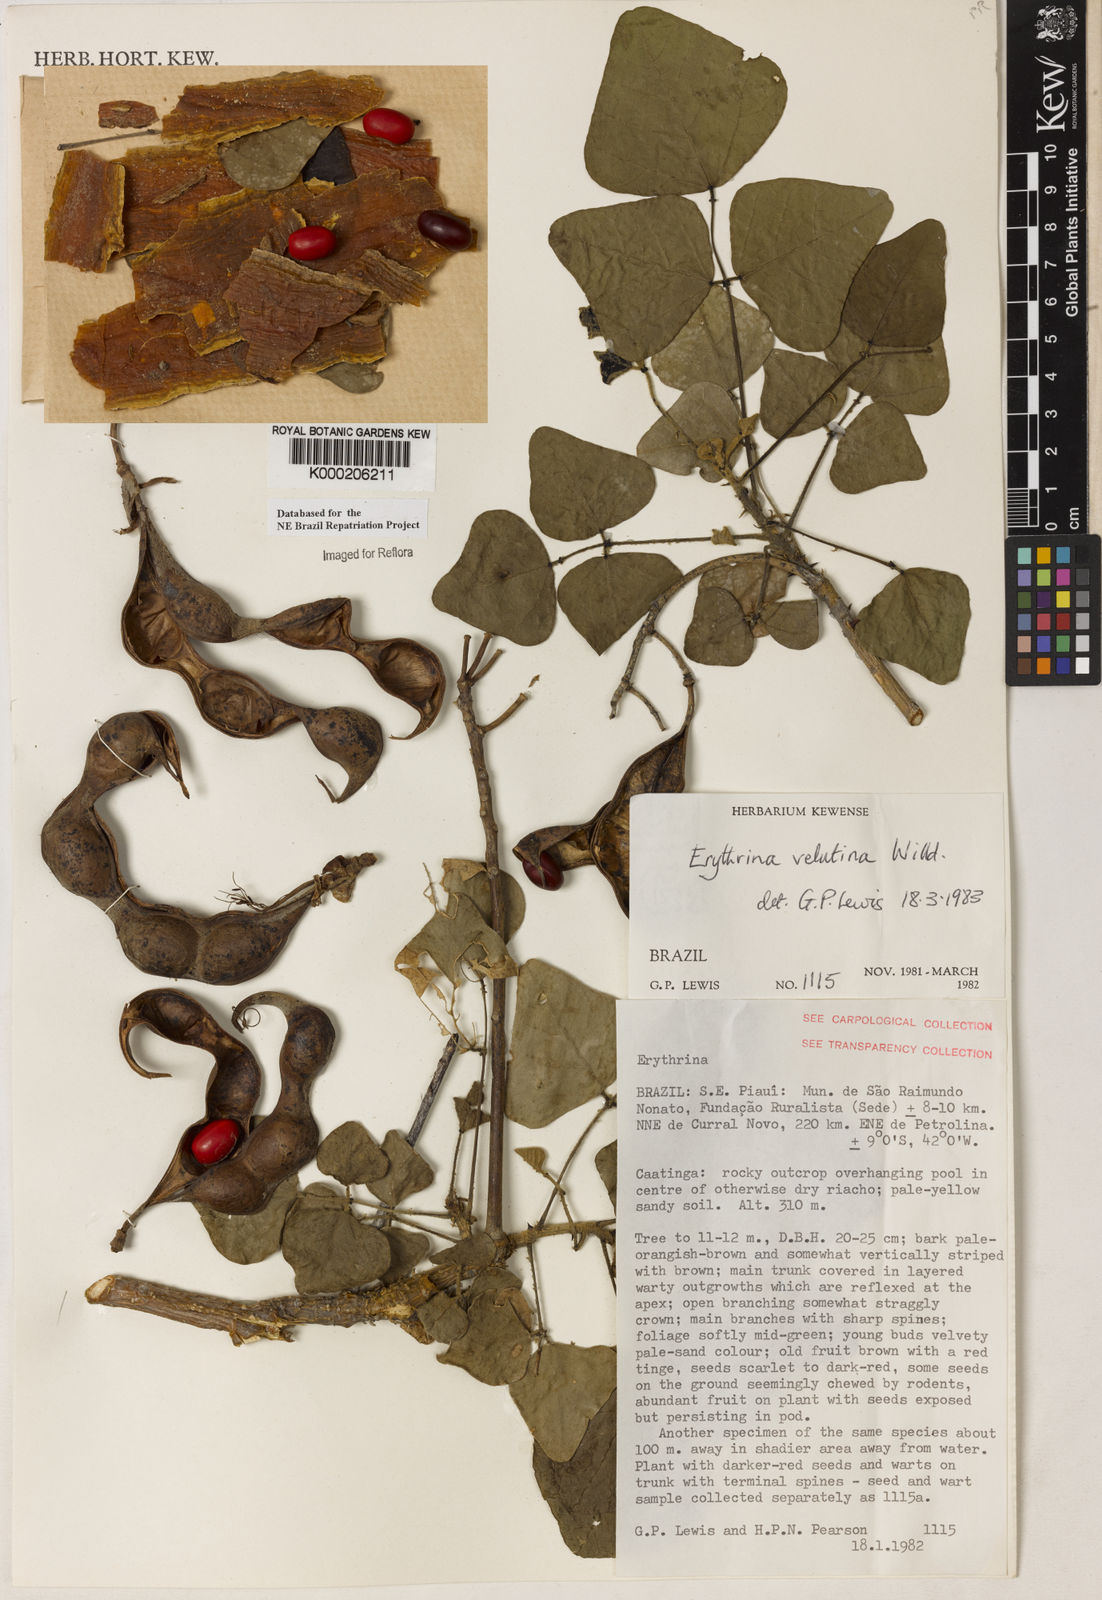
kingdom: Plantae
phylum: Tracheophyta
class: Magnoliopsida
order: Fabales
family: Fabaceae
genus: Erythrina
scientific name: Erythrina velutina
